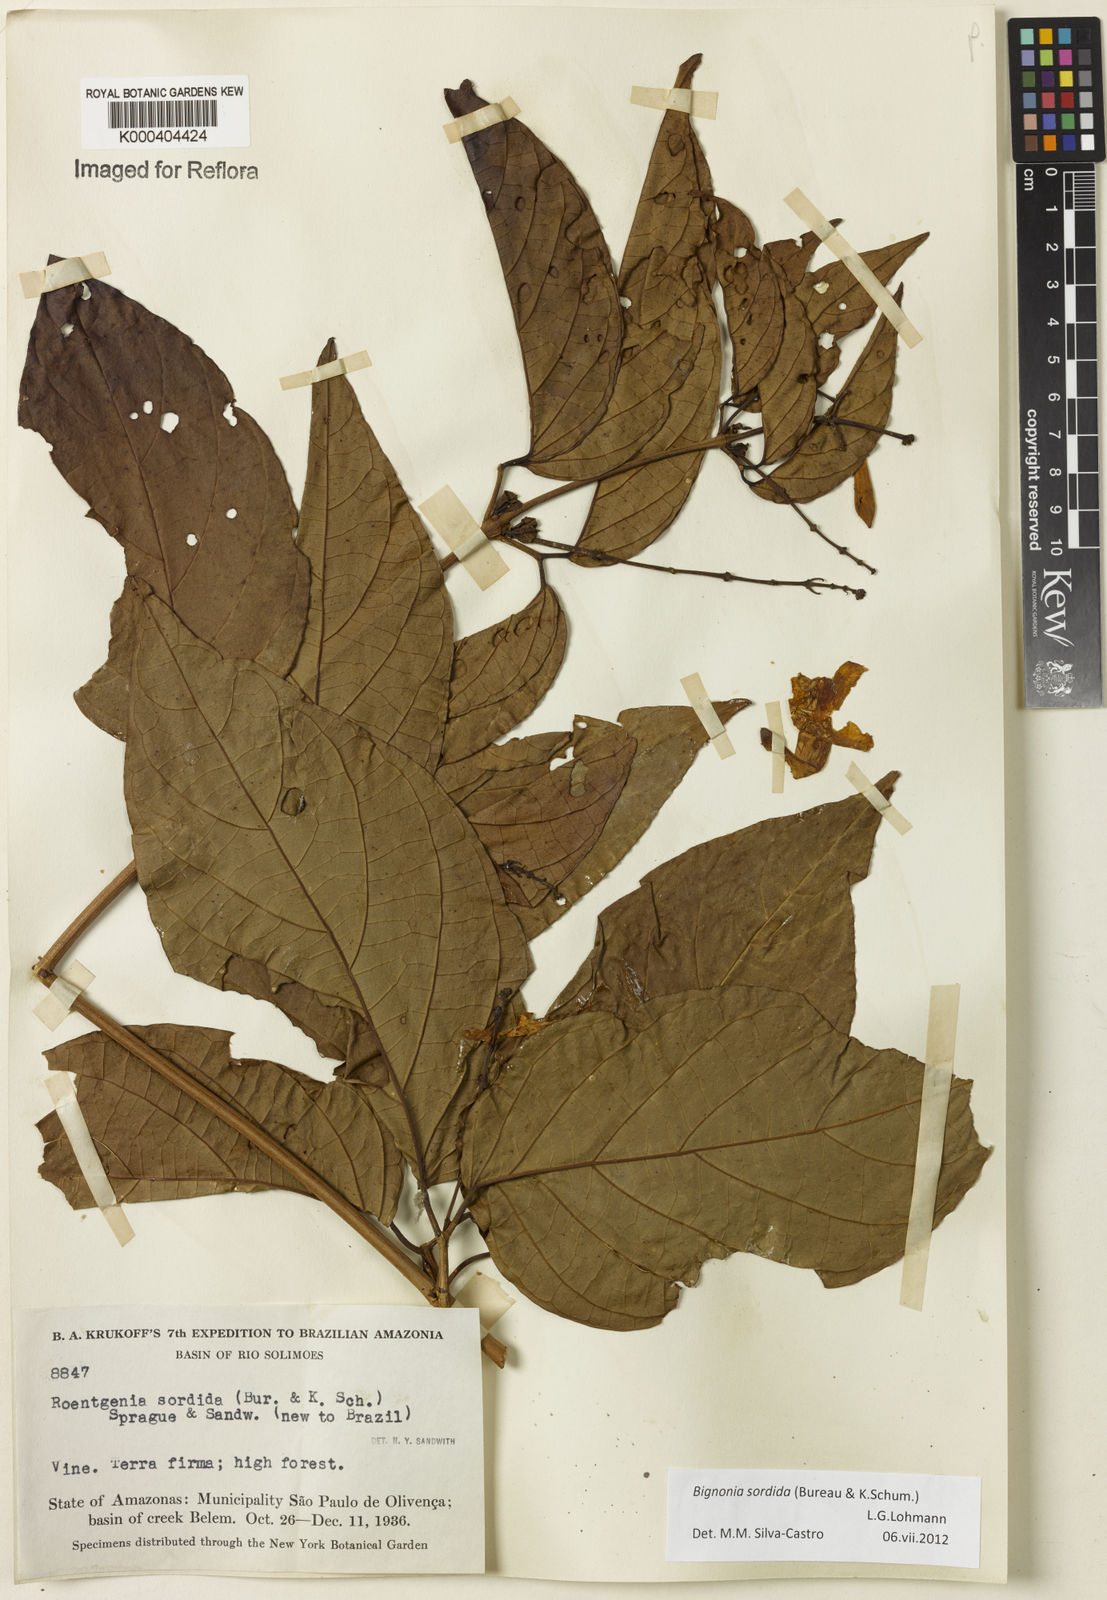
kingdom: Plantae
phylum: Tracheophyta
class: Magnoliopsida
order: Lamiales
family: Bignoniaceae
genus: Bignonia
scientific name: Bignonia sordida
